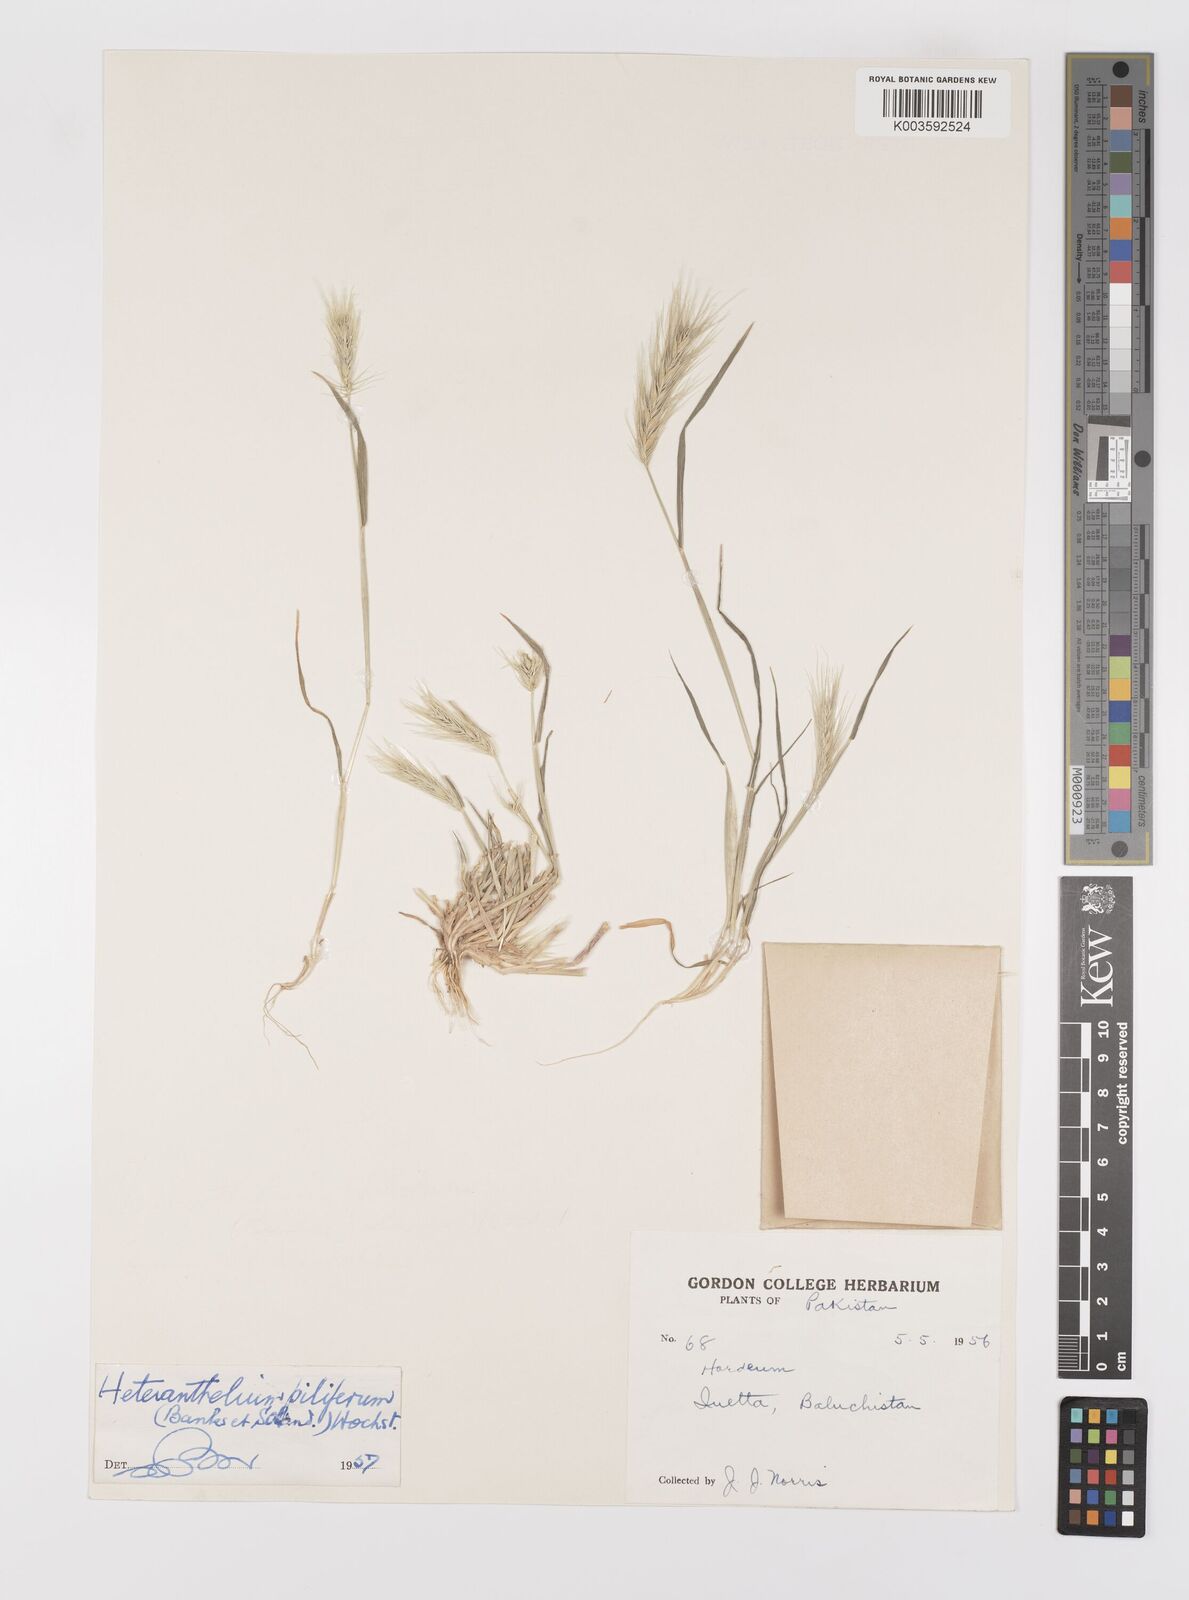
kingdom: Plantae
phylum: Tracheophyta
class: Liliopsida
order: Poales
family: Poaceae
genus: Heteranthelium
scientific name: Heteranthelium piliferum
